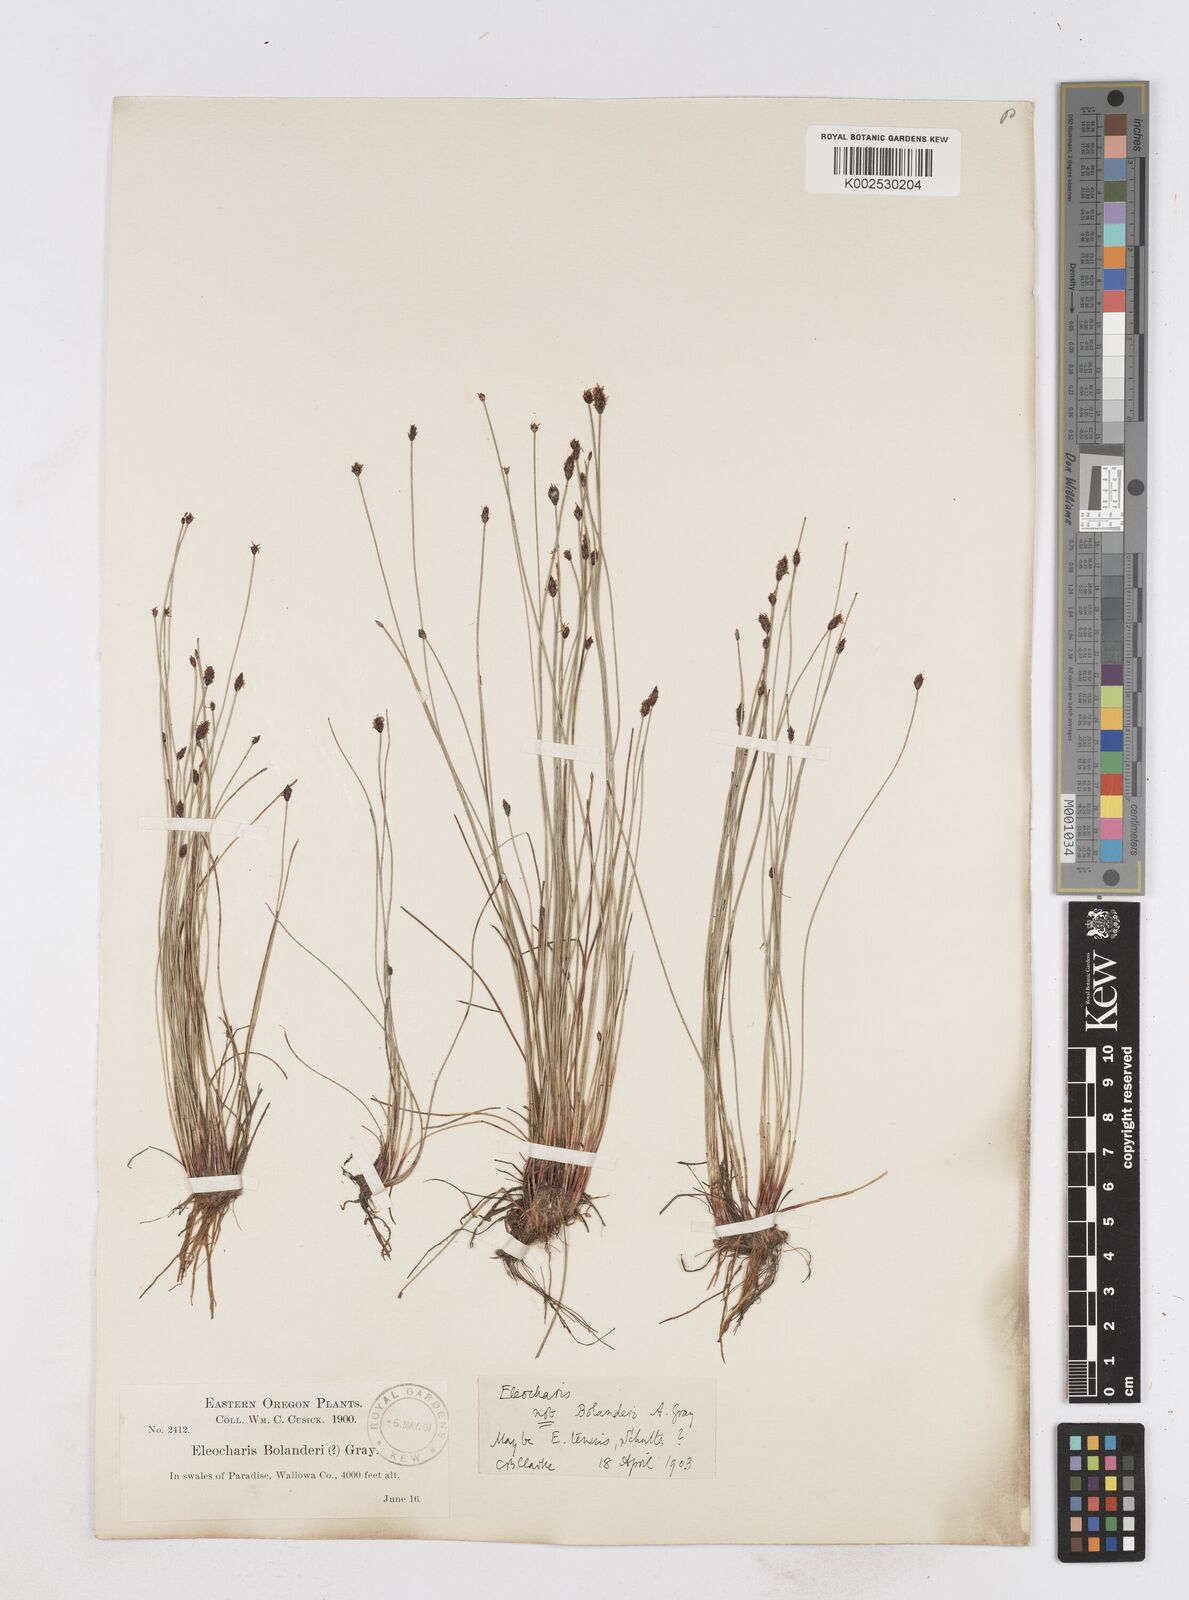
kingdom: Plantae
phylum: Tracheophyta
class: Liliopsida
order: Poales
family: Cyperaceae
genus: Eleocharis
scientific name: Eleocharis tenuis
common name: Dog's hair
